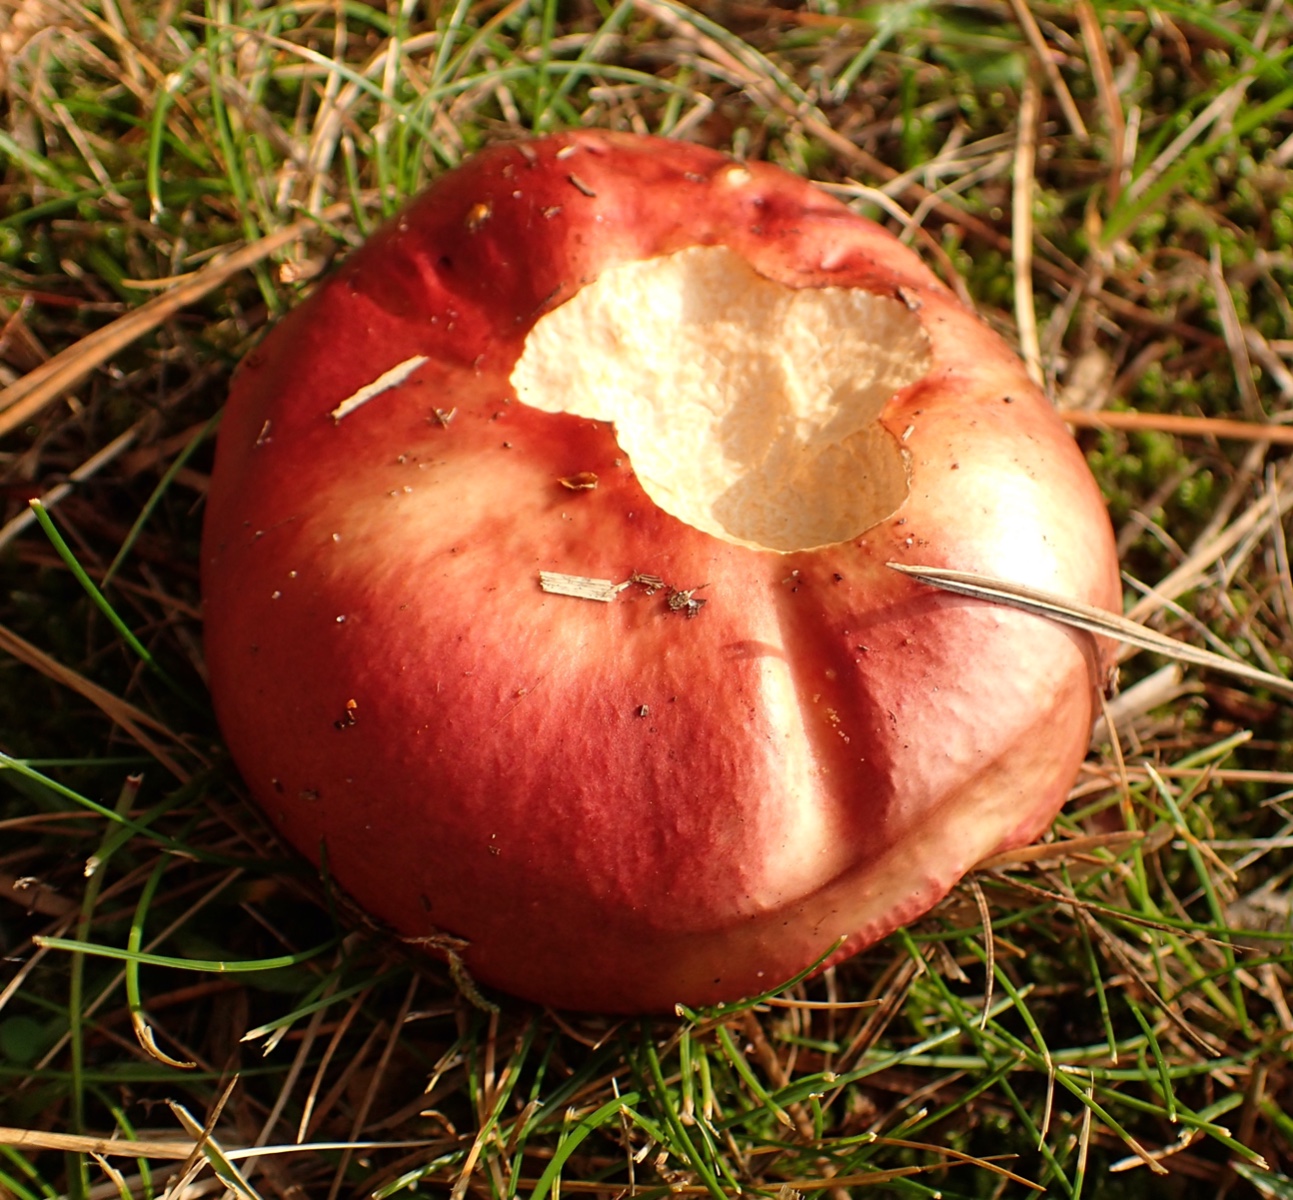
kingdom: Fungi
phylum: Basidiomycota
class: Agaricomycetes
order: Russulales
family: Russulaceae
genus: Russula
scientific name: Russula xerampelina
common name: hummer-skørhat
